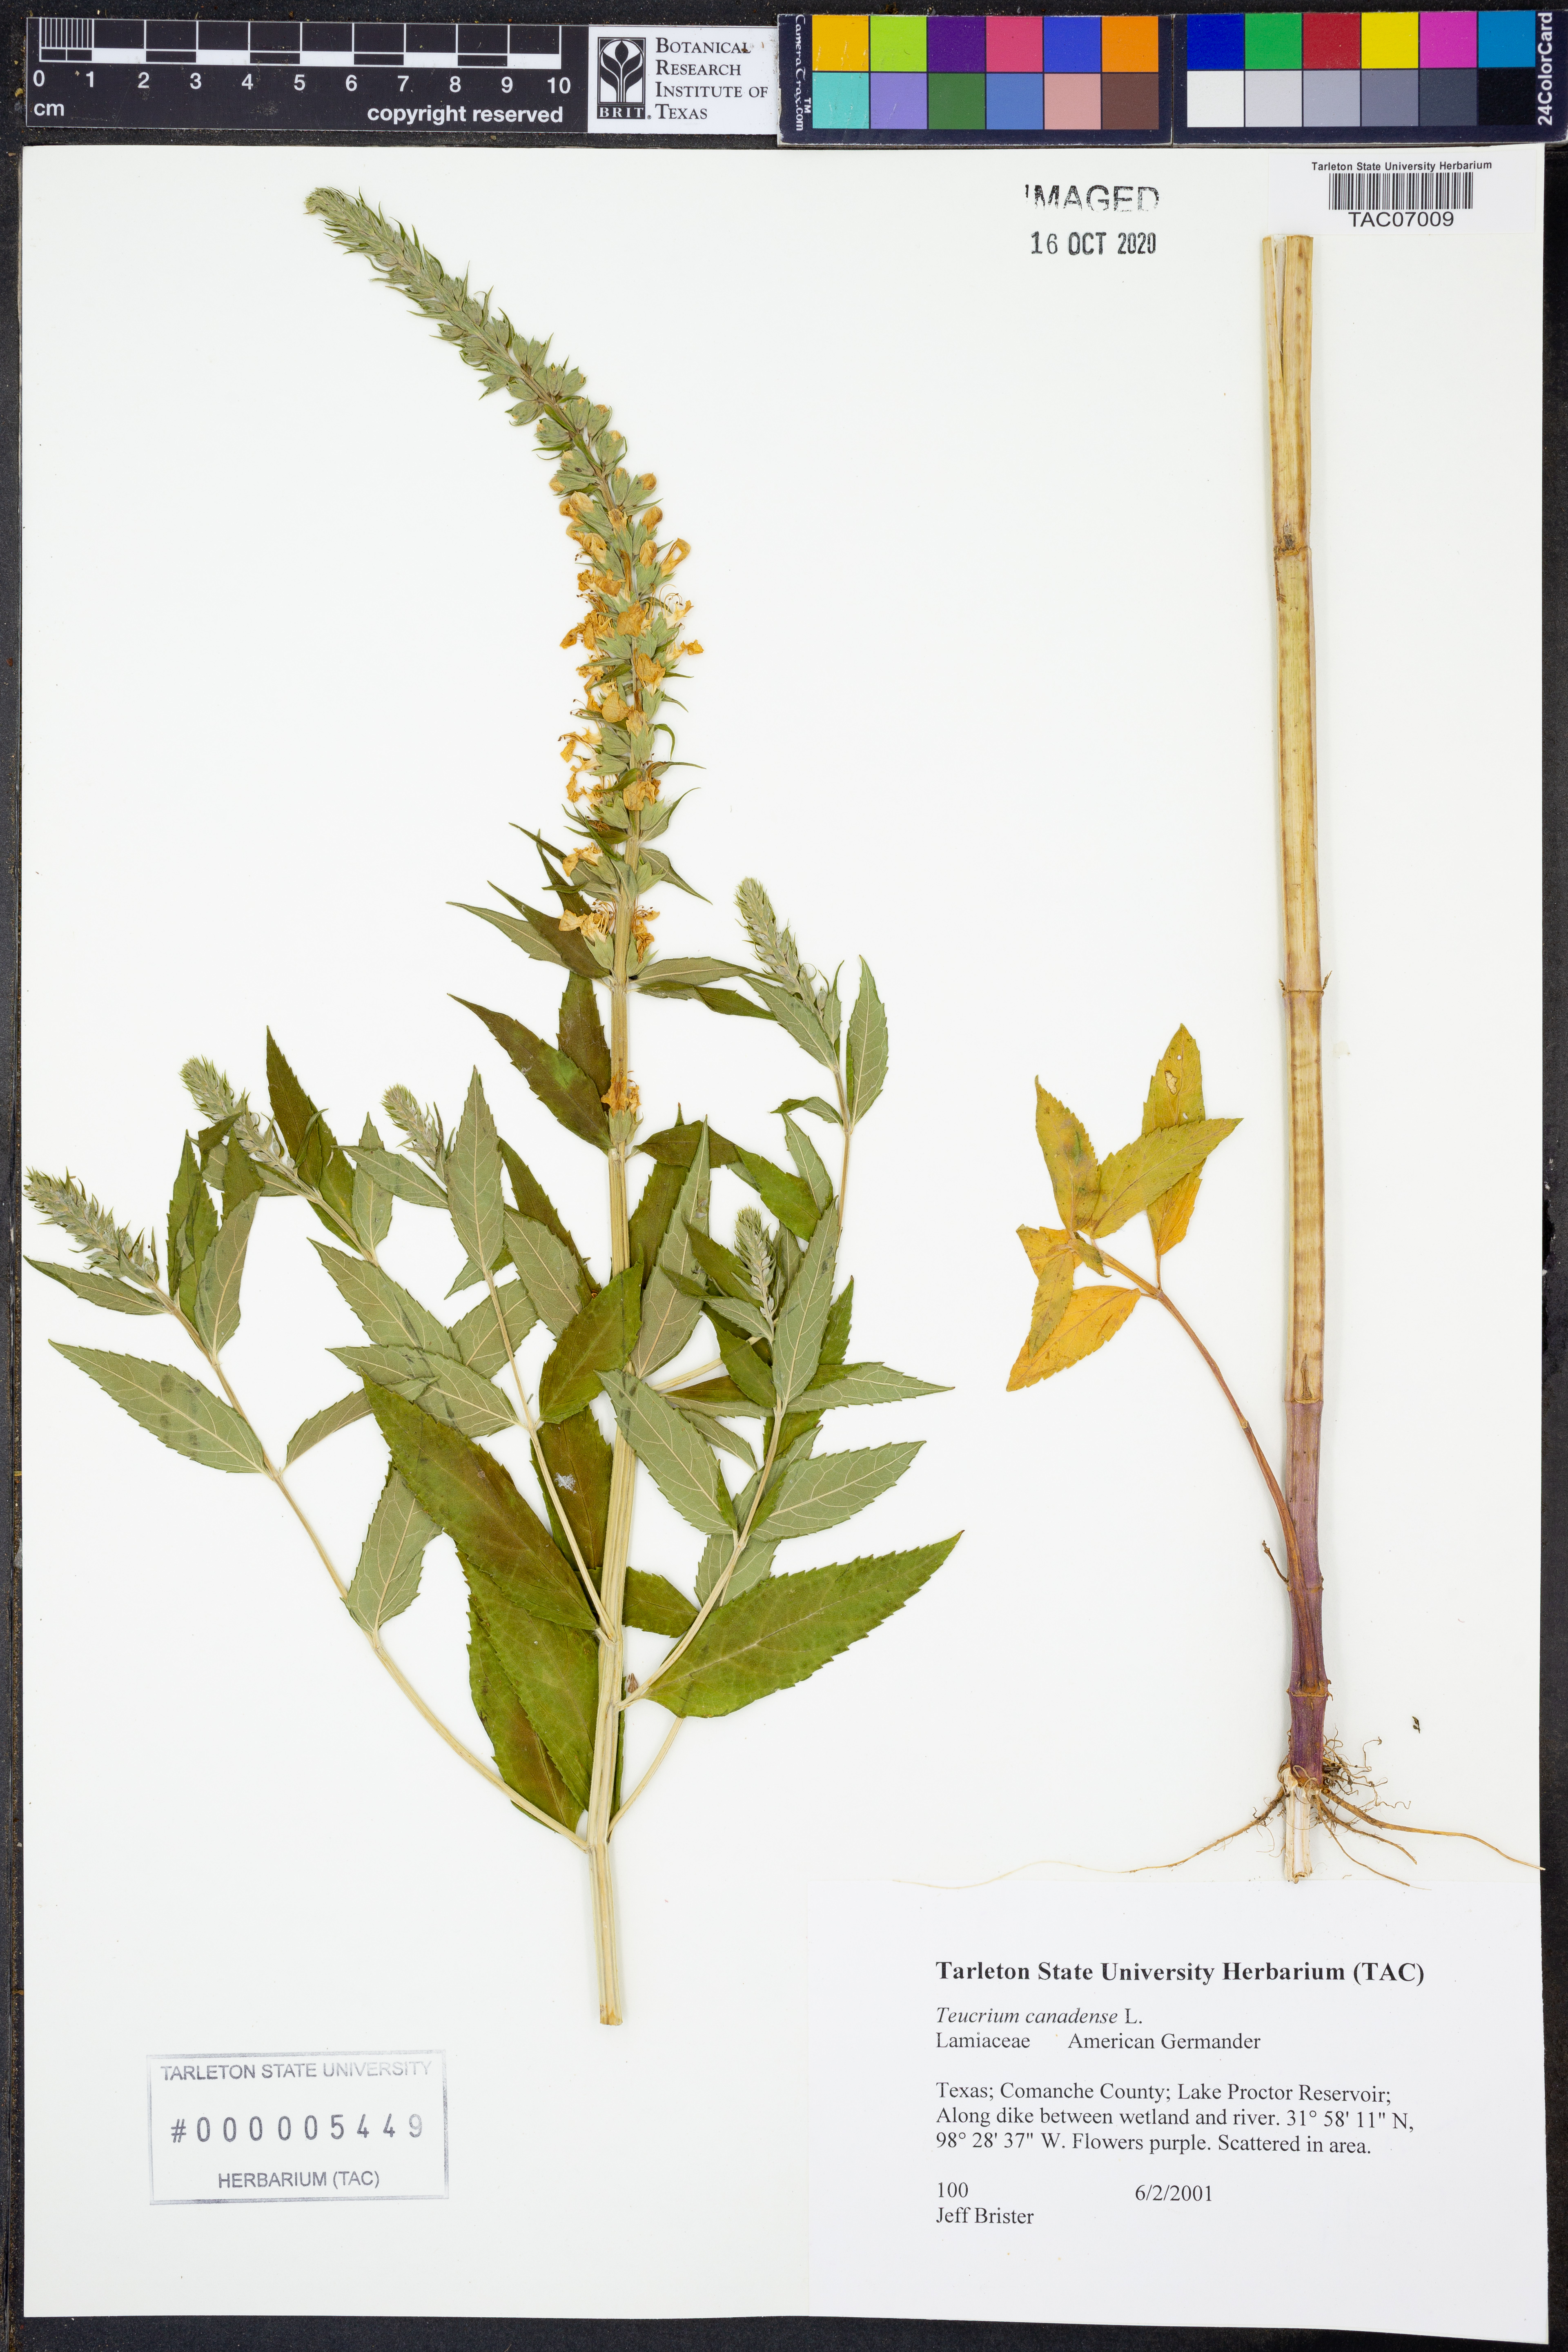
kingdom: Plantae
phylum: Tracheophyta
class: Magnoliopsida
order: Lamiales
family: Lamiaceae
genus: Teucrium
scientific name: Teucrium canadense
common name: American germander
